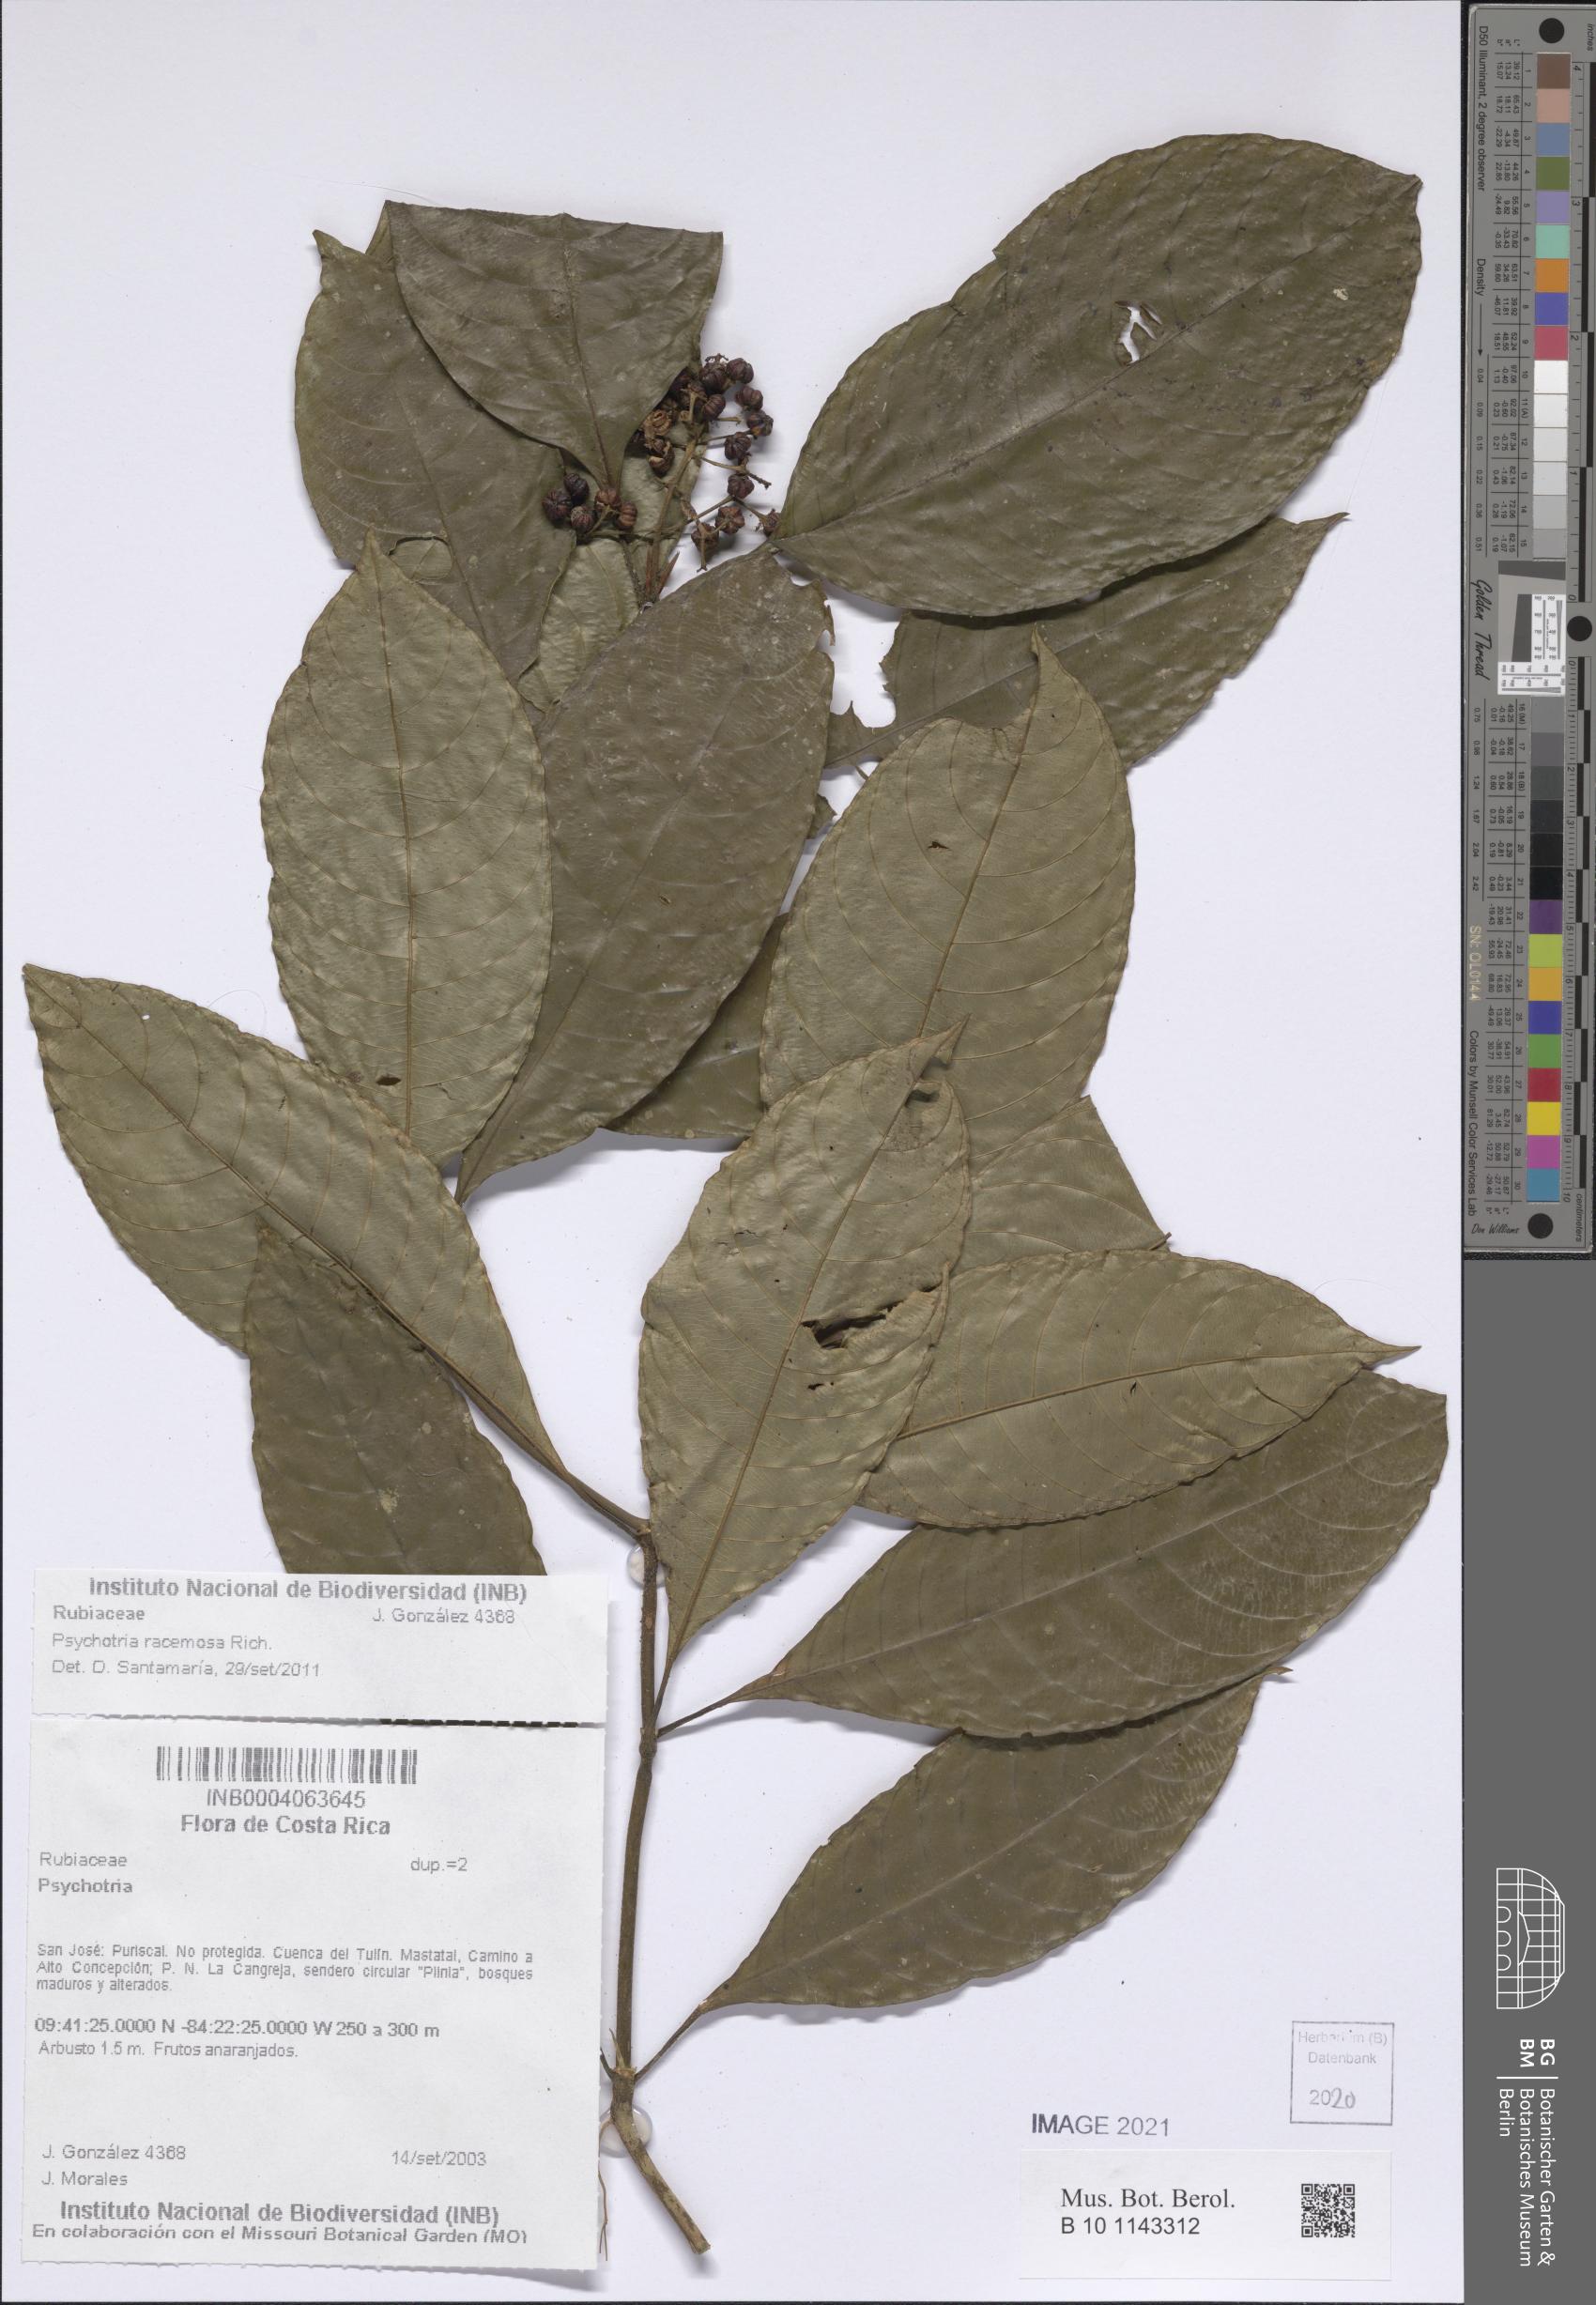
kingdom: Plantae
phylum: Tracheophyta
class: Magnoliopsida
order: Gentianales
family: Rubiaceae
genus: Palicourea
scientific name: Palicourea racemosa
